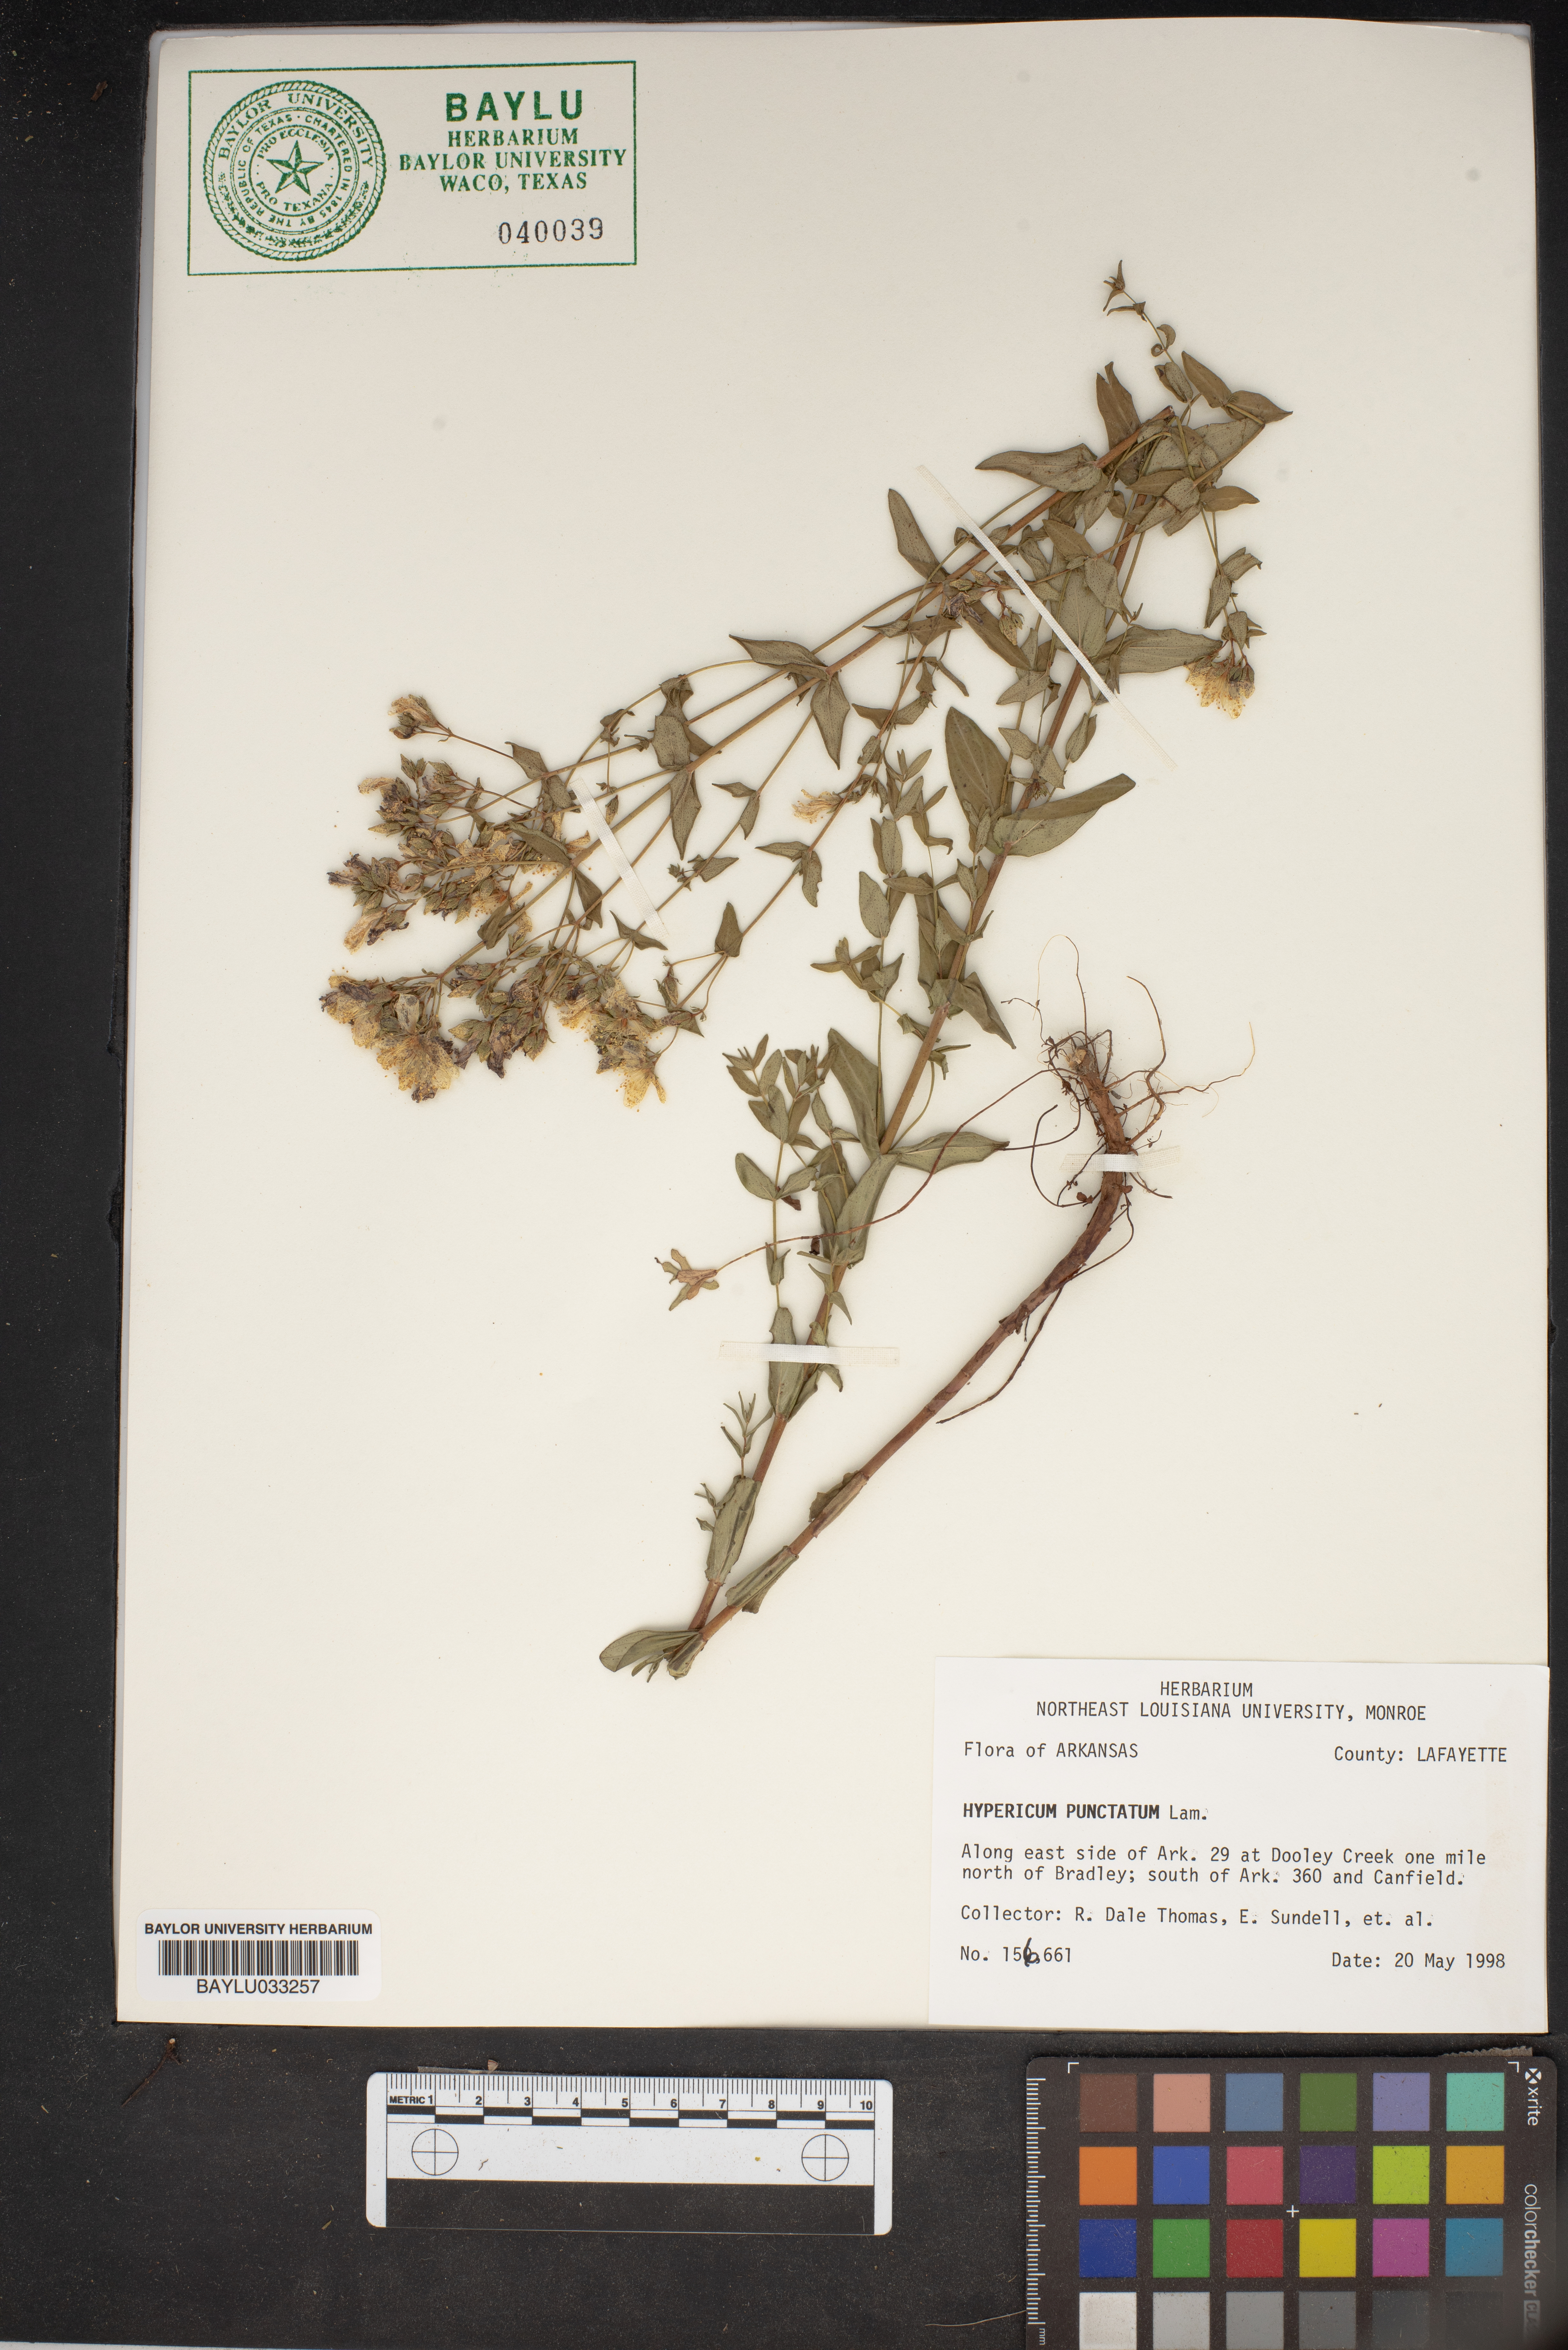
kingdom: Plantae
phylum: Tracheophyta
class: Magnoliopsida
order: Malpighiales
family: Hypericaceae
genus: Hypericum
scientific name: Hypericum punctatum
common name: Spotted st. john's-wort
